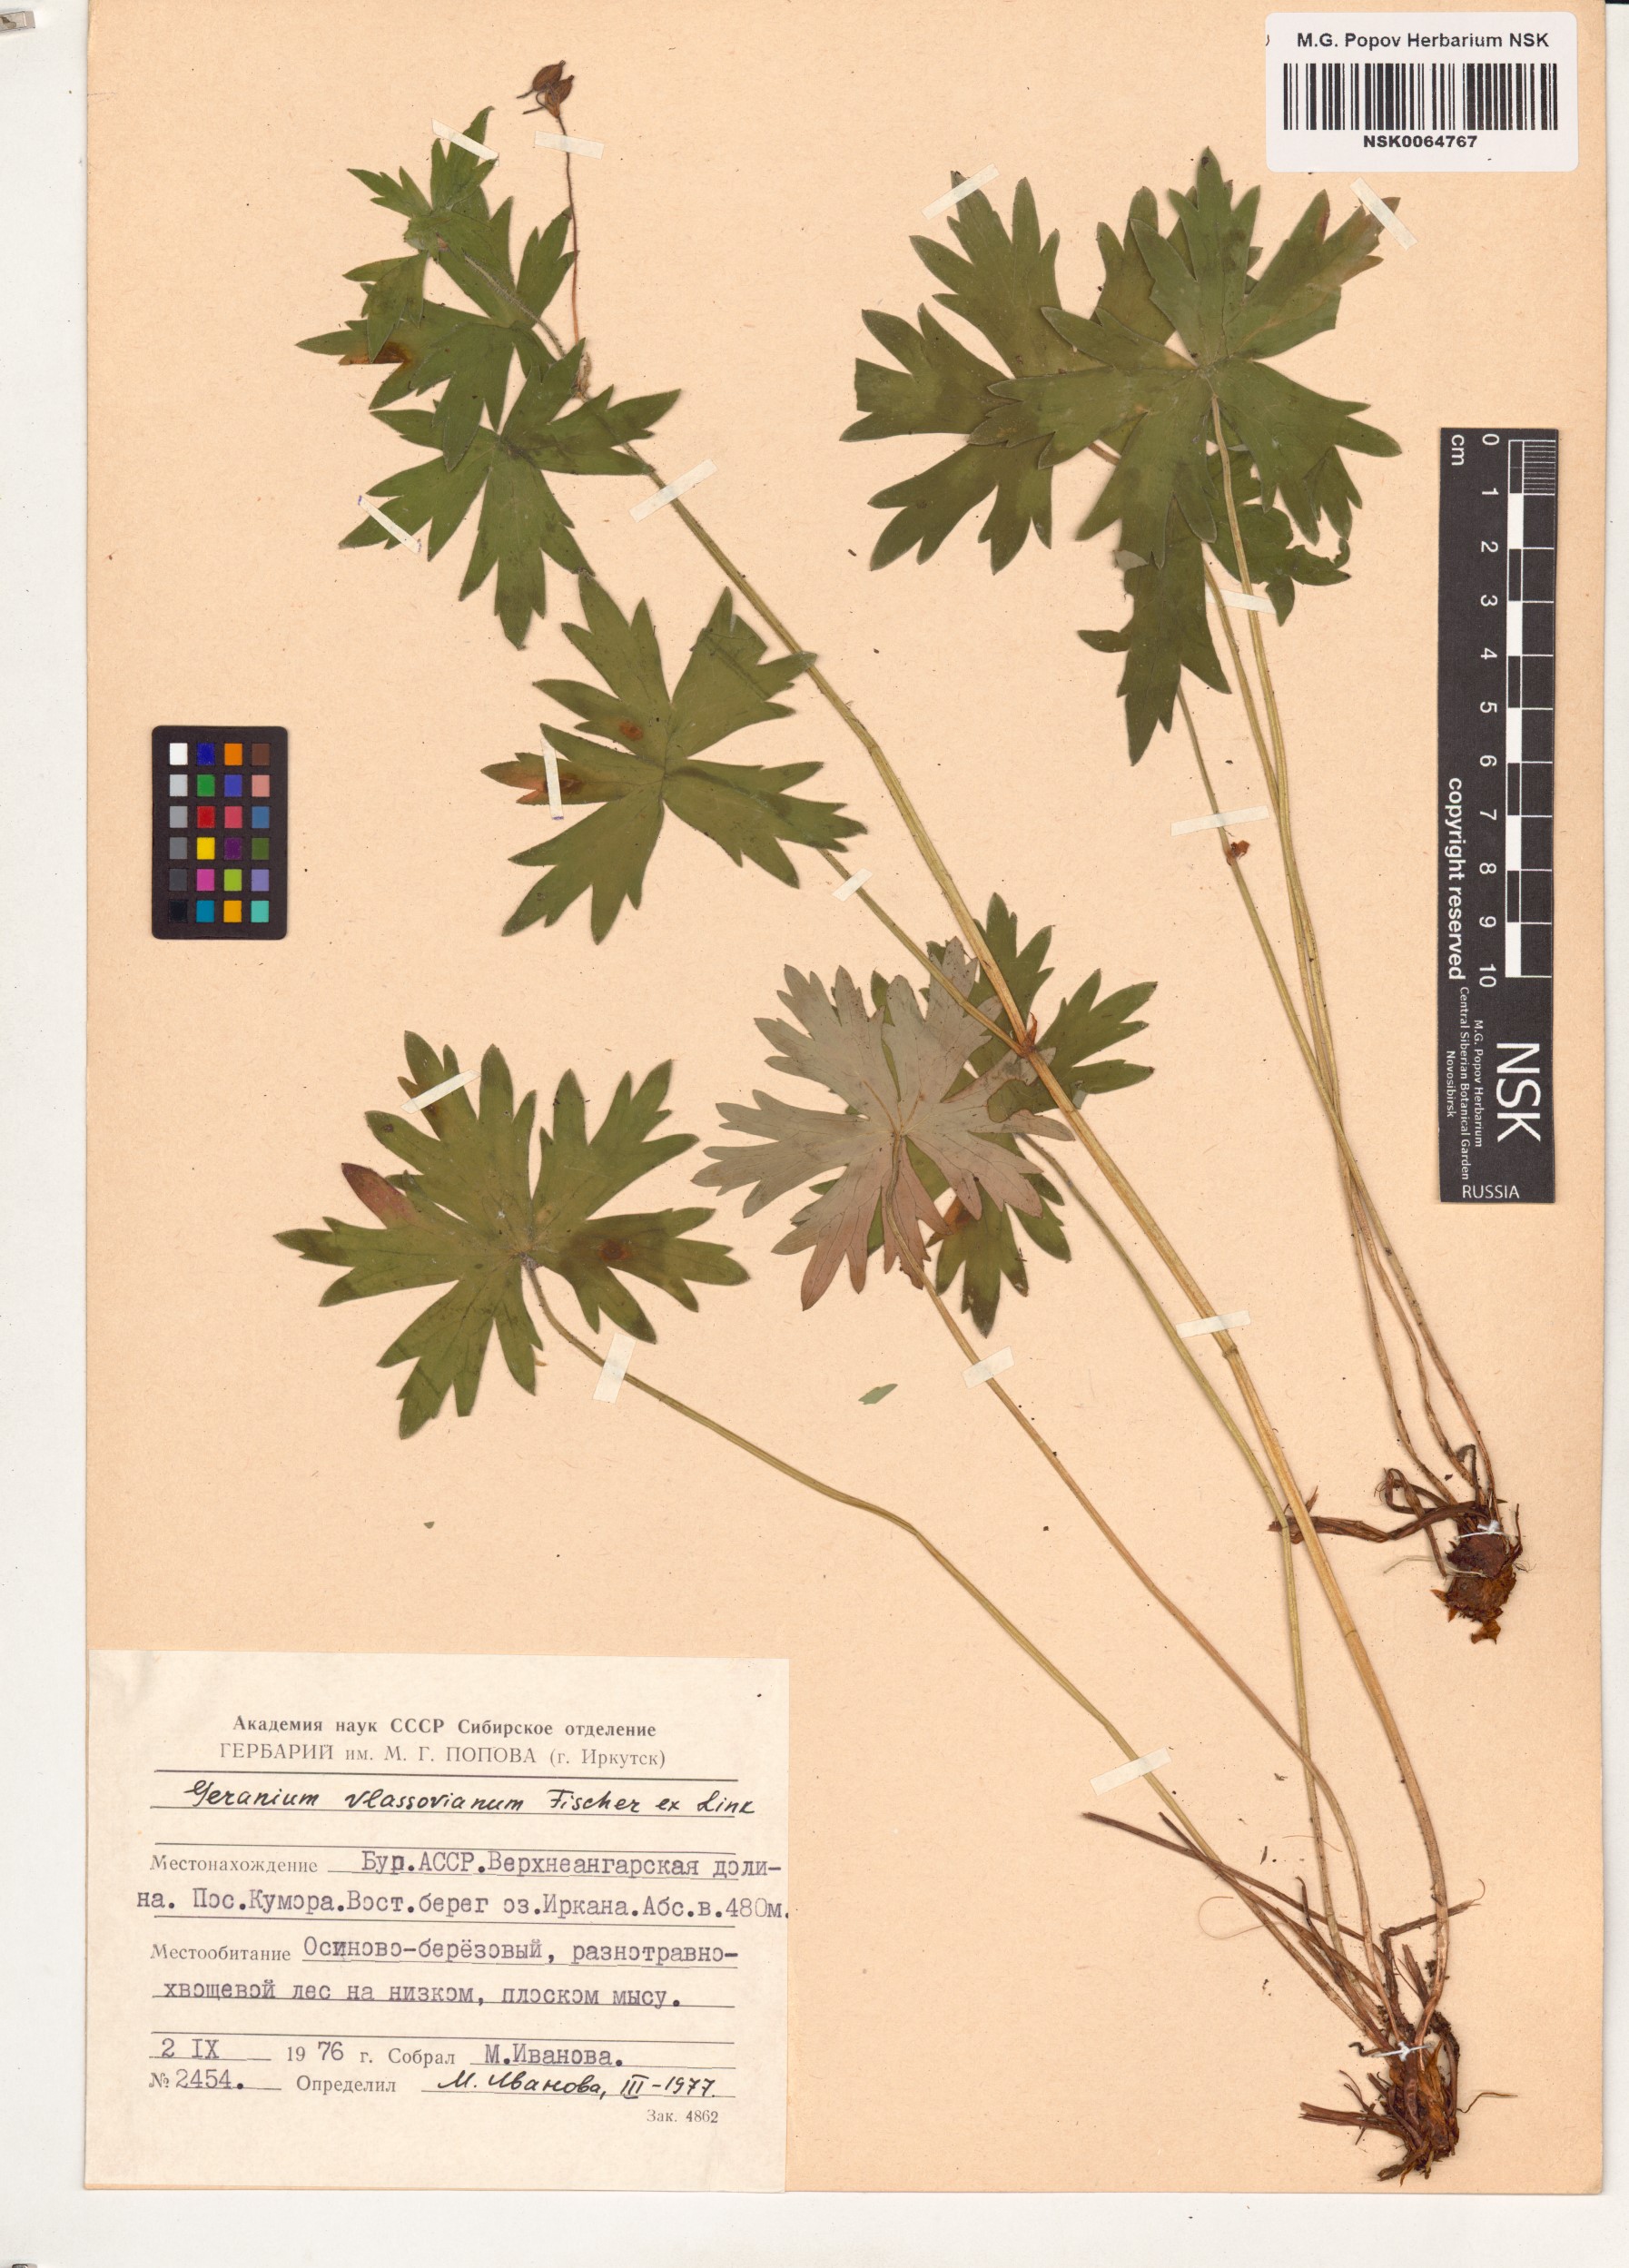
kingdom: Plantae
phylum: Tracheophyta
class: Magnoliopsida
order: Geraniales
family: Geraniaceae
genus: Geranium
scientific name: Geranium wlassovianum
